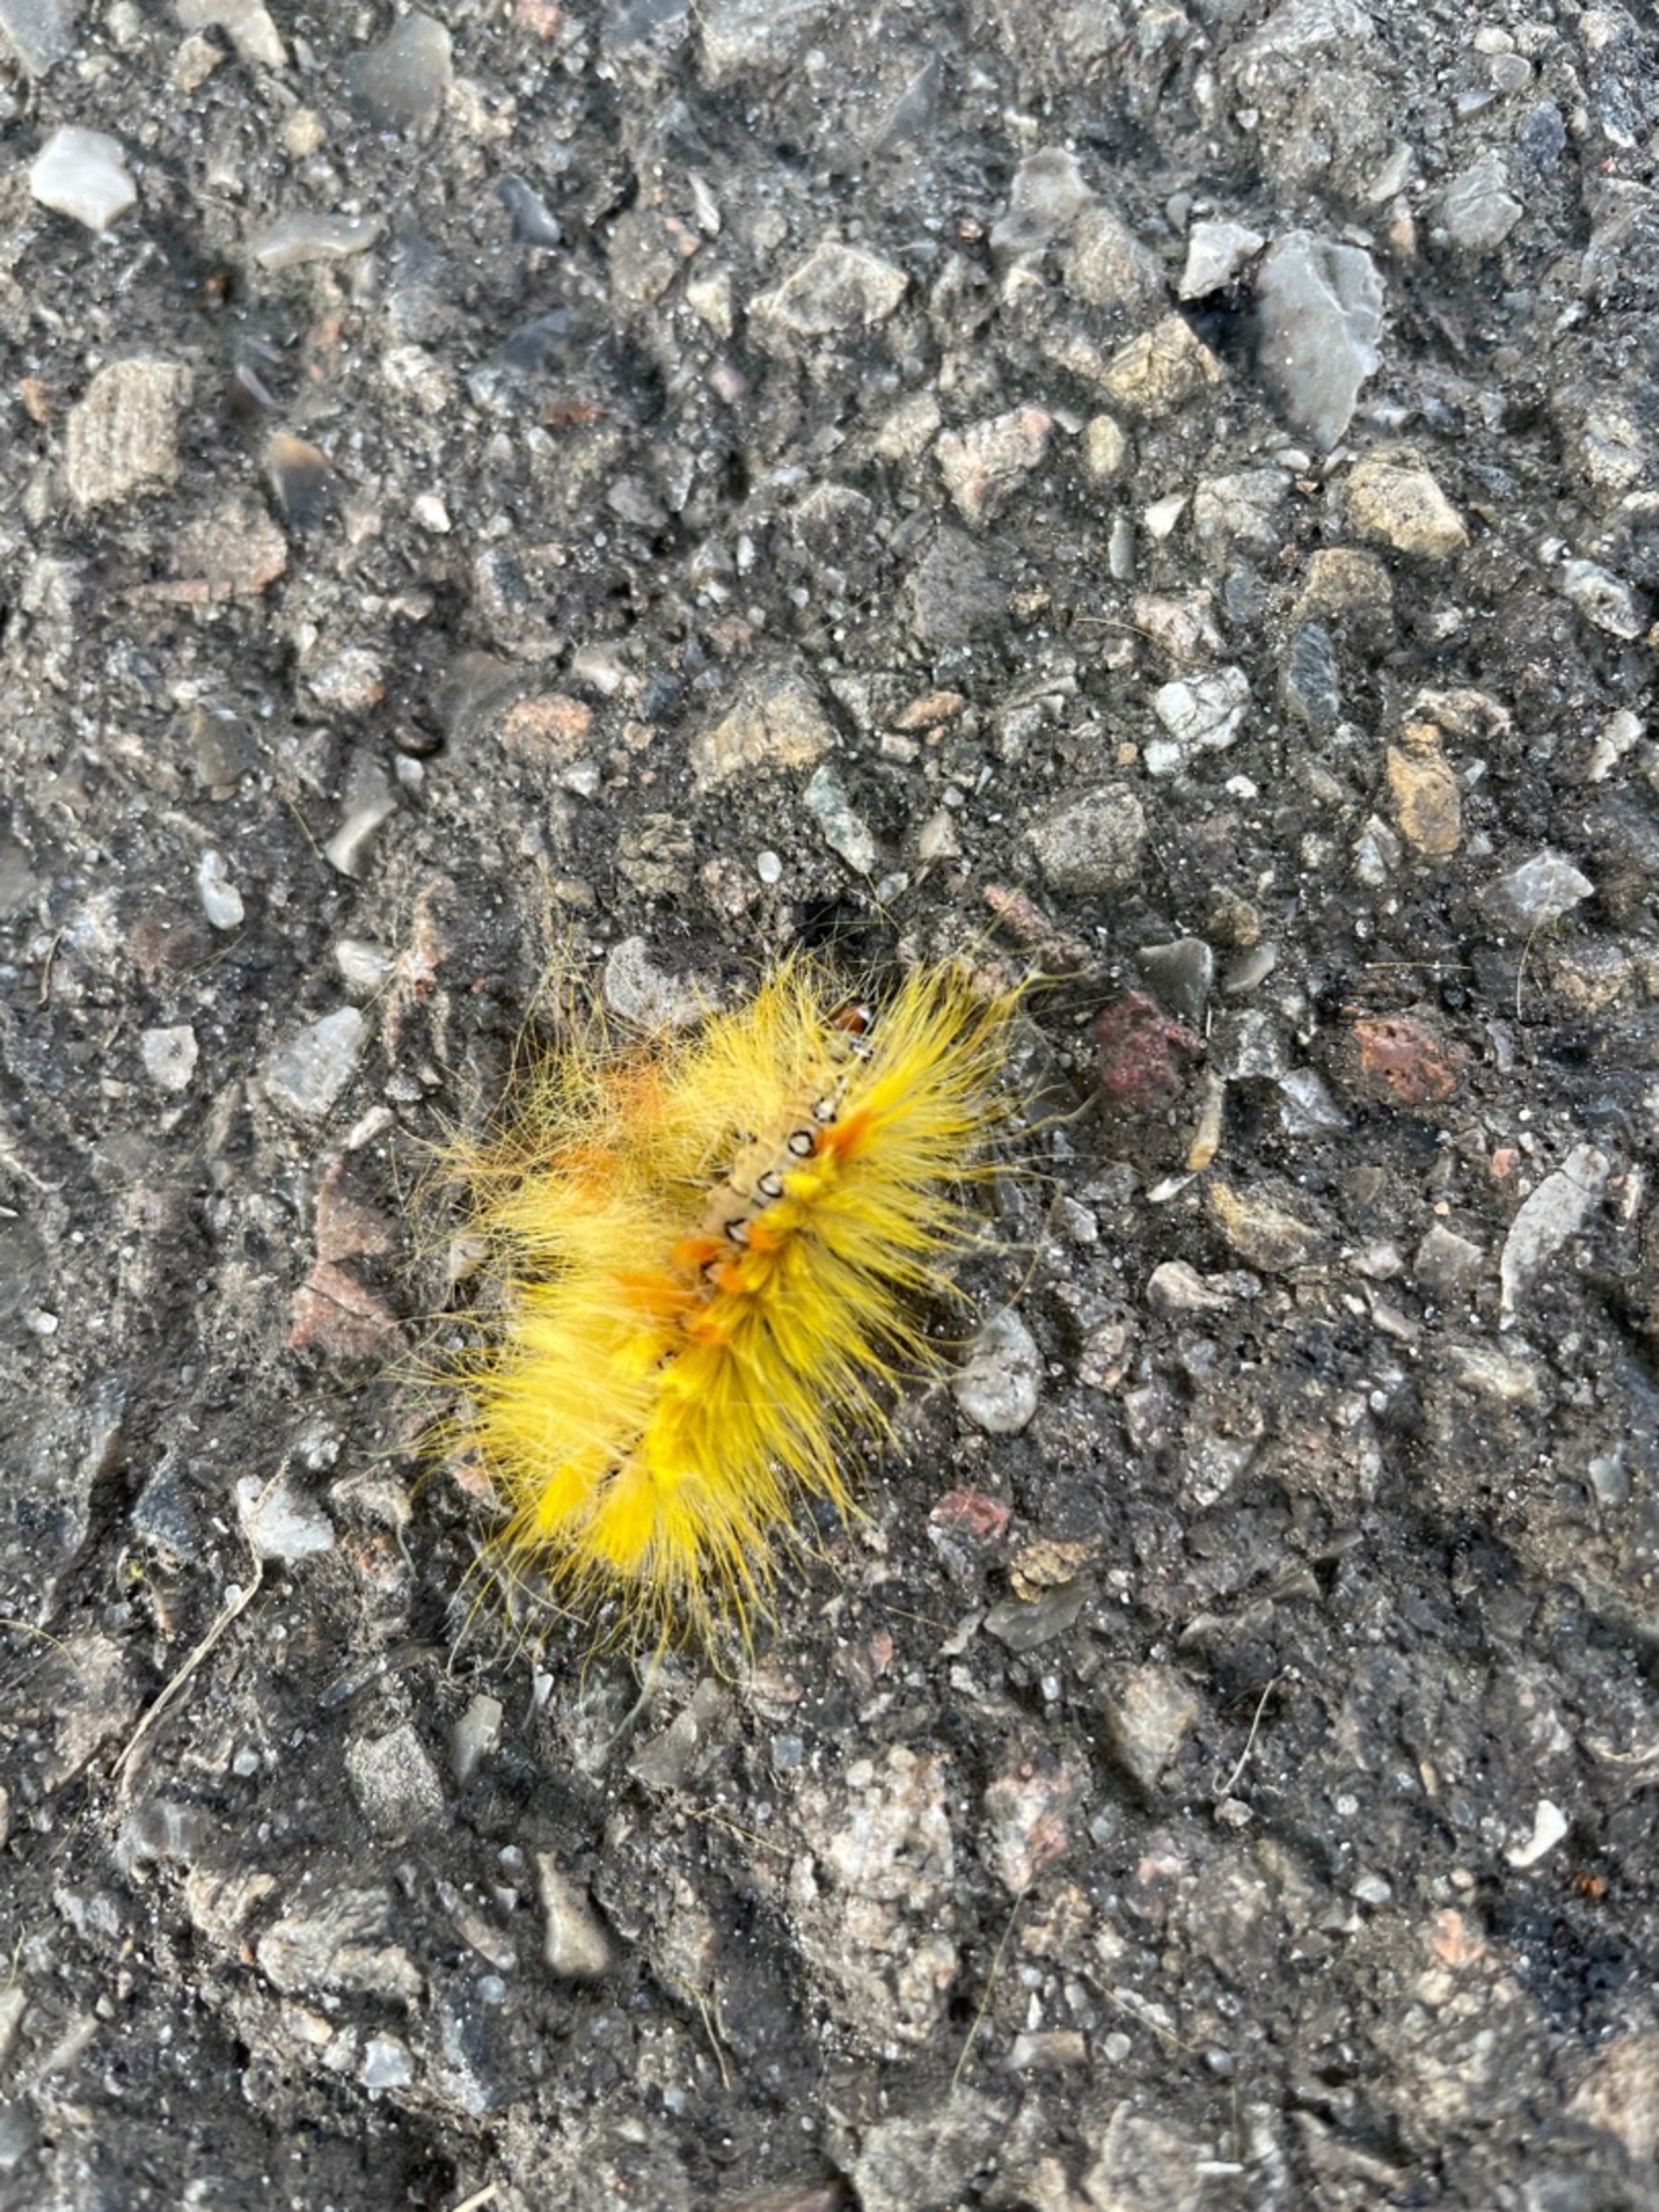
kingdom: Animalia
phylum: Arthropoda
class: Insecta
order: Lepidoptera
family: Noctuidae
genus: Acronicta
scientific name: Acronicta aceris
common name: Ahornugle
